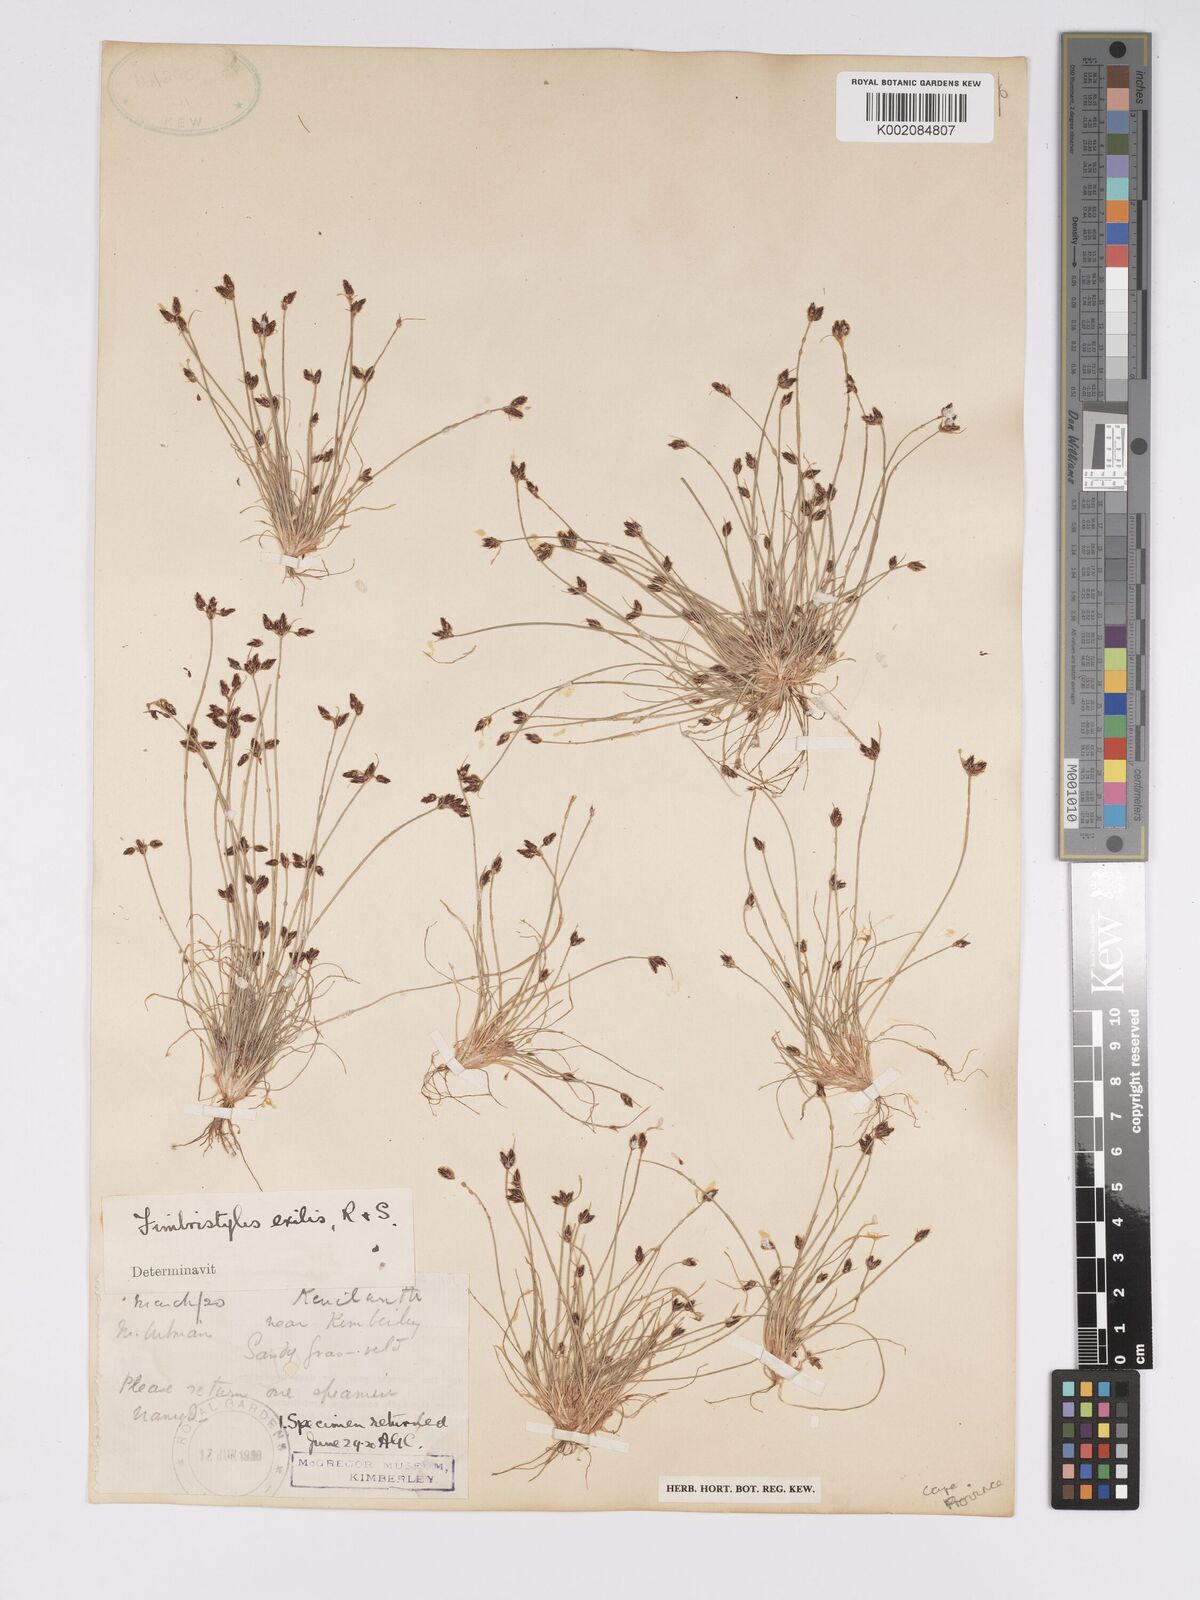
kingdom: Plantae
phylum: Tracheophyta
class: Liliopsida
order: Poales
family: Cyperaceae
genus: Bulbostylis
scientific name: Bulbostylis hispidula
